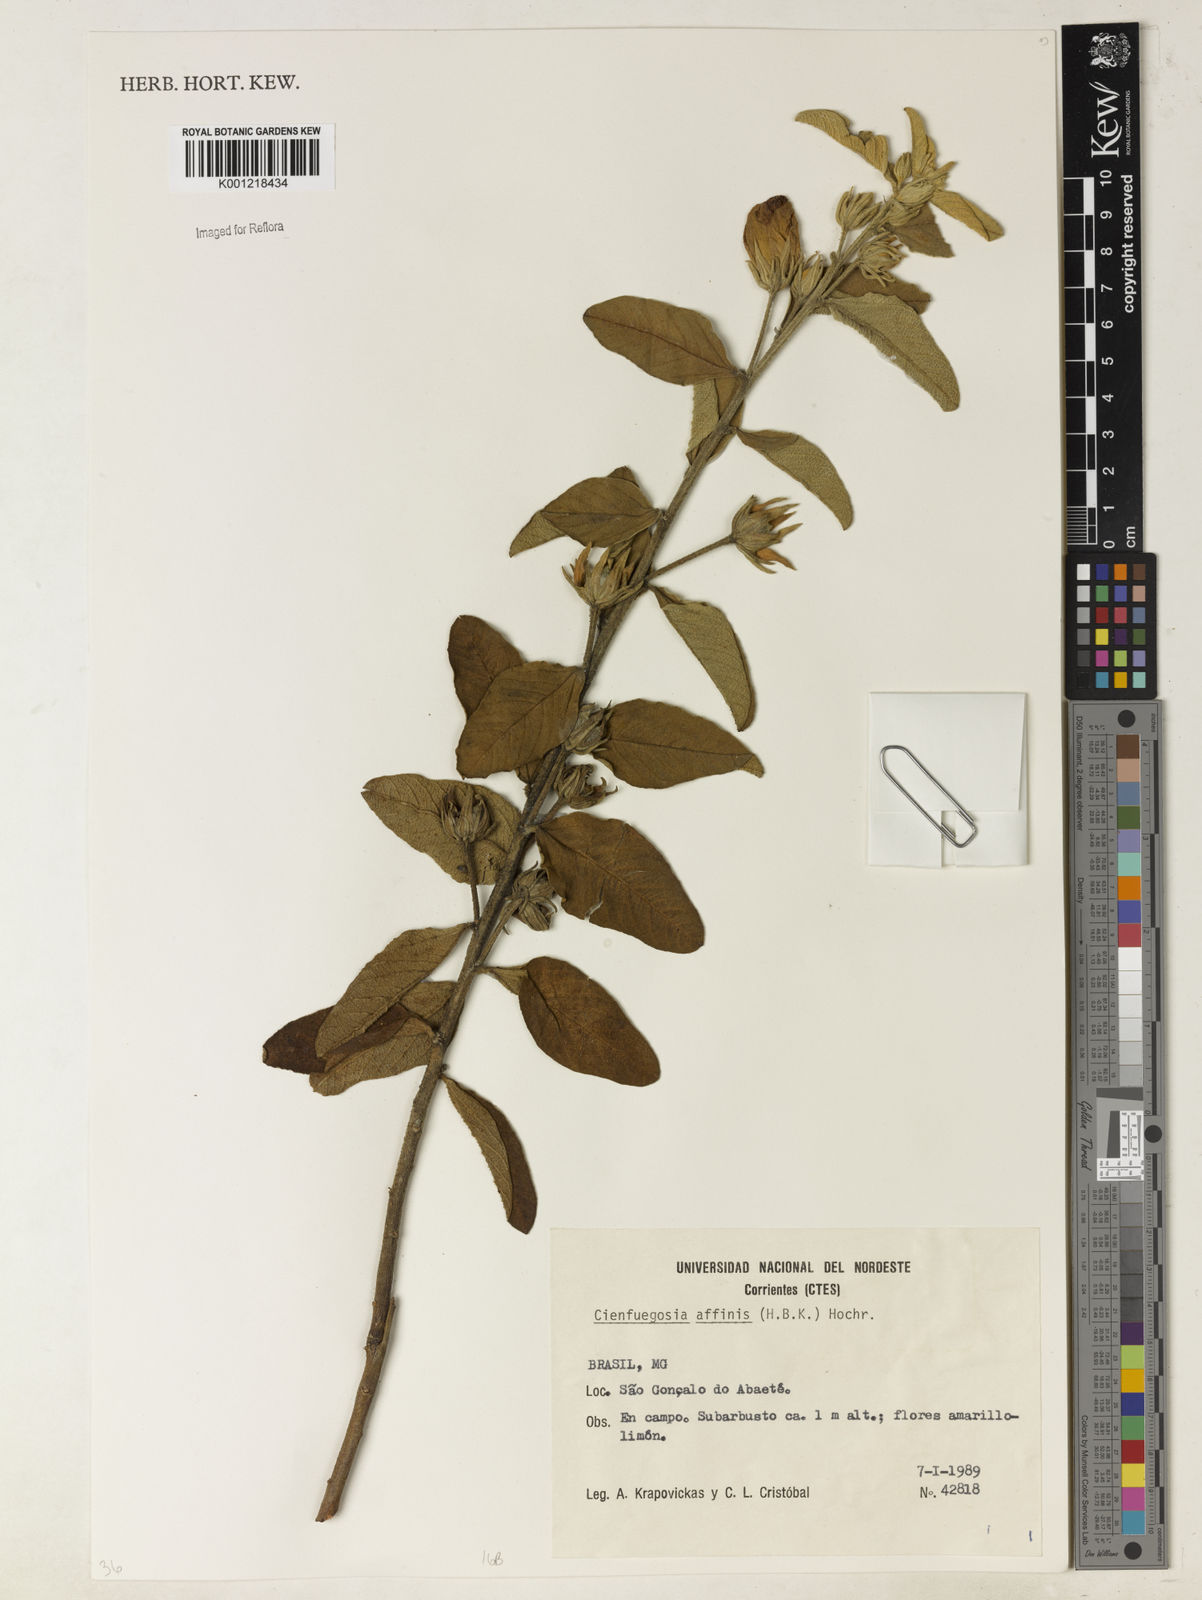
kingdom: Plantae
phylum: Tracheophyta
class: Magnoliopsida
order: Malvales
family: Malvaceae
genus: Cienfuegosia
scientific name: Cienfuegosia affinis
